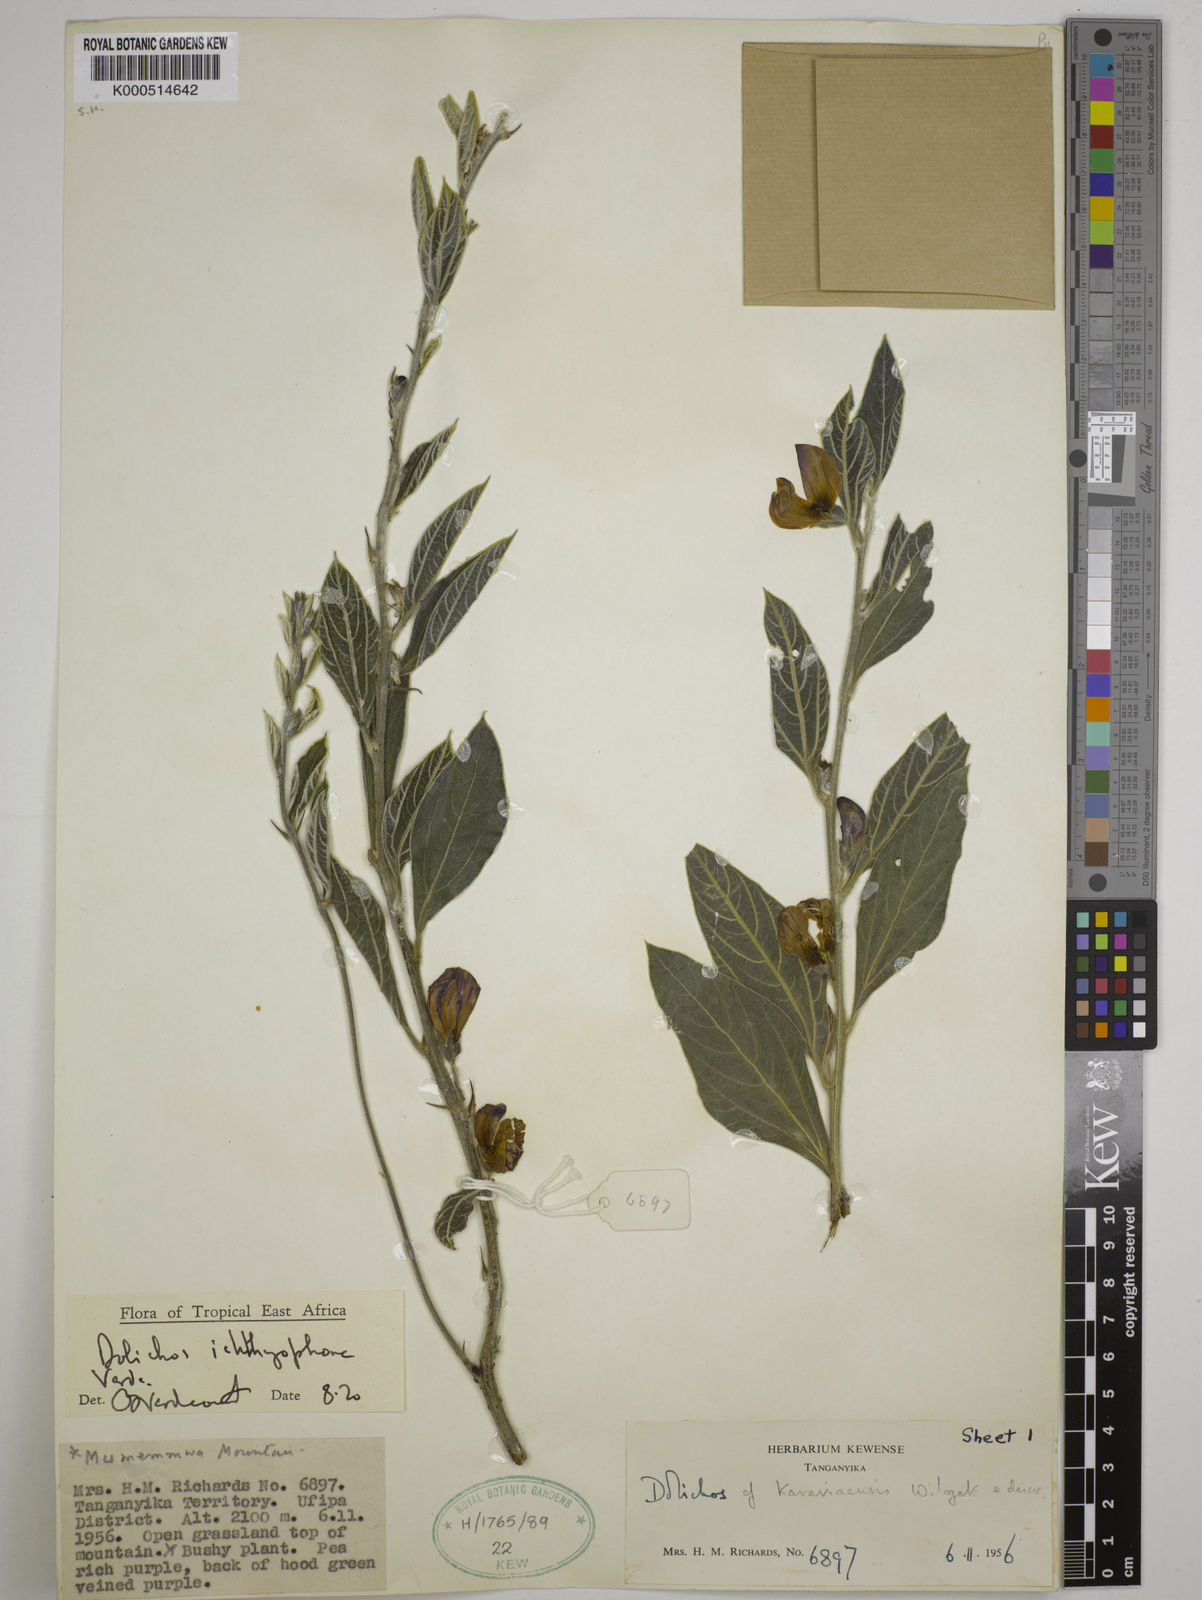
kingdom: Plantae
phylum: Tracheophyta
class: Magnoliopsida
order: Fabales
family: Fabaceae
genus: Dolichos
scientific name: Dolichos ichthyophone
